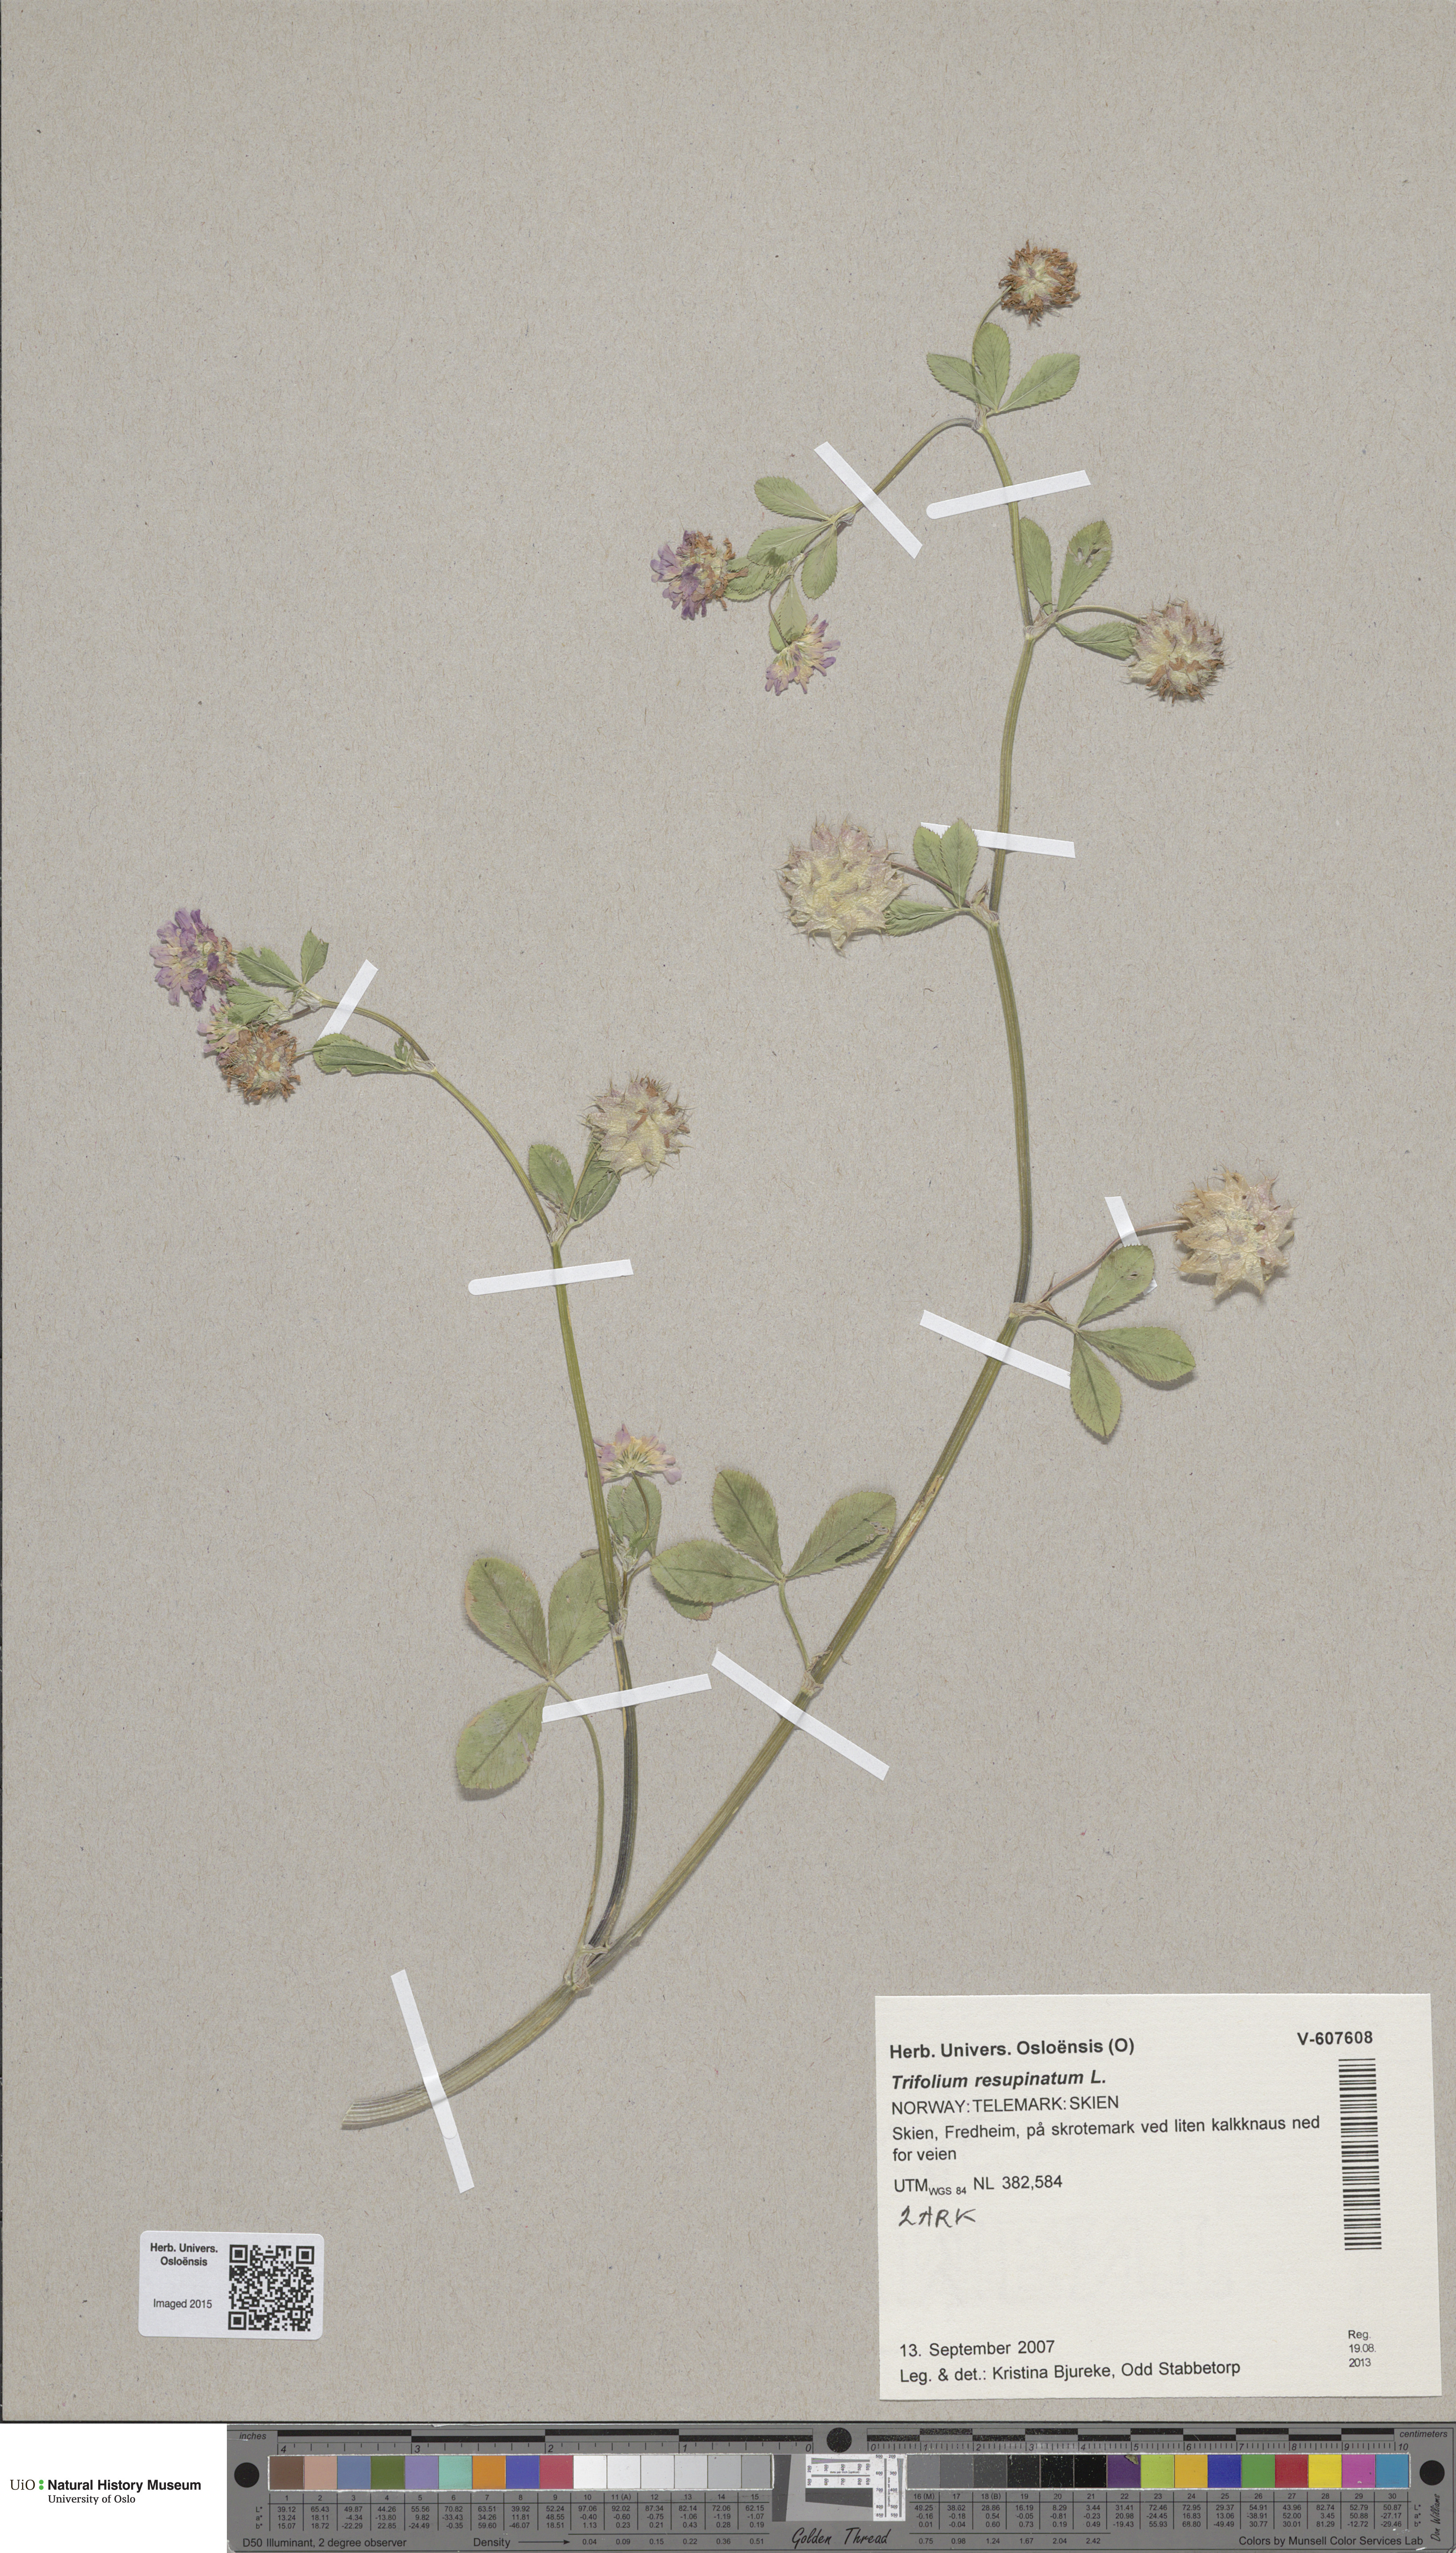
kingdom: Plantae
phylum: Tracheophyta
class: Magnoliopsida
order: Fabales
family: Fabaceae
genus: Trifolium
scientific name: Trifolium resupinatum
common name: Reversed clover
